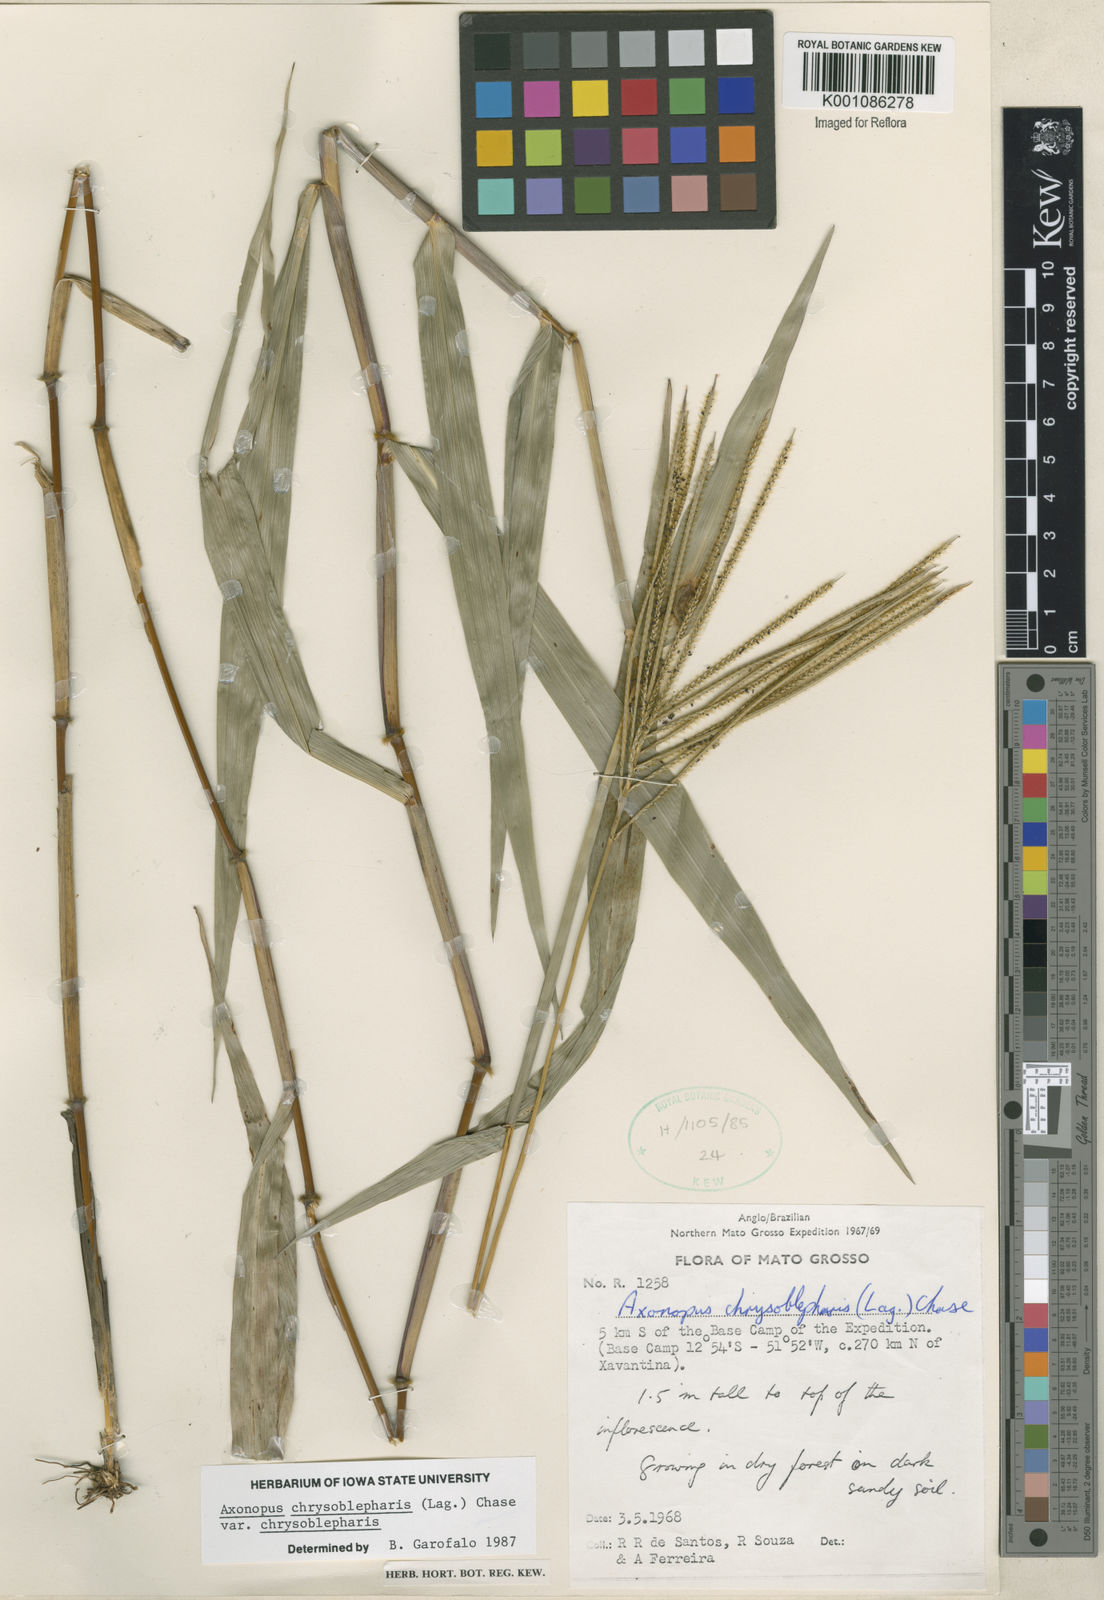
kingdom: Plantae
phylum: Tracheophyta
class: Liliopsida
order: Poales
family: Poaceae
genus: Axonopus
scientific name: Axonopus chrysoblepharis
